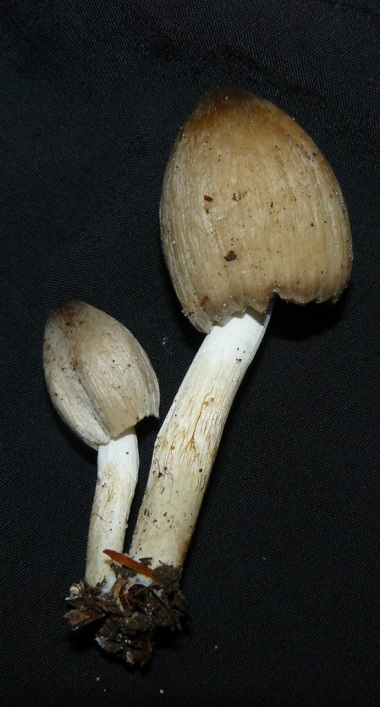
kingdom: Fungi
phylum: Basidiomycota
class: Agaricomycetes
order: Agaricales
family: Psathyrellaceae
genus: Coprinopsis
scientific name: Coprinopsis atramentaria
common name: almindelig blækhat
